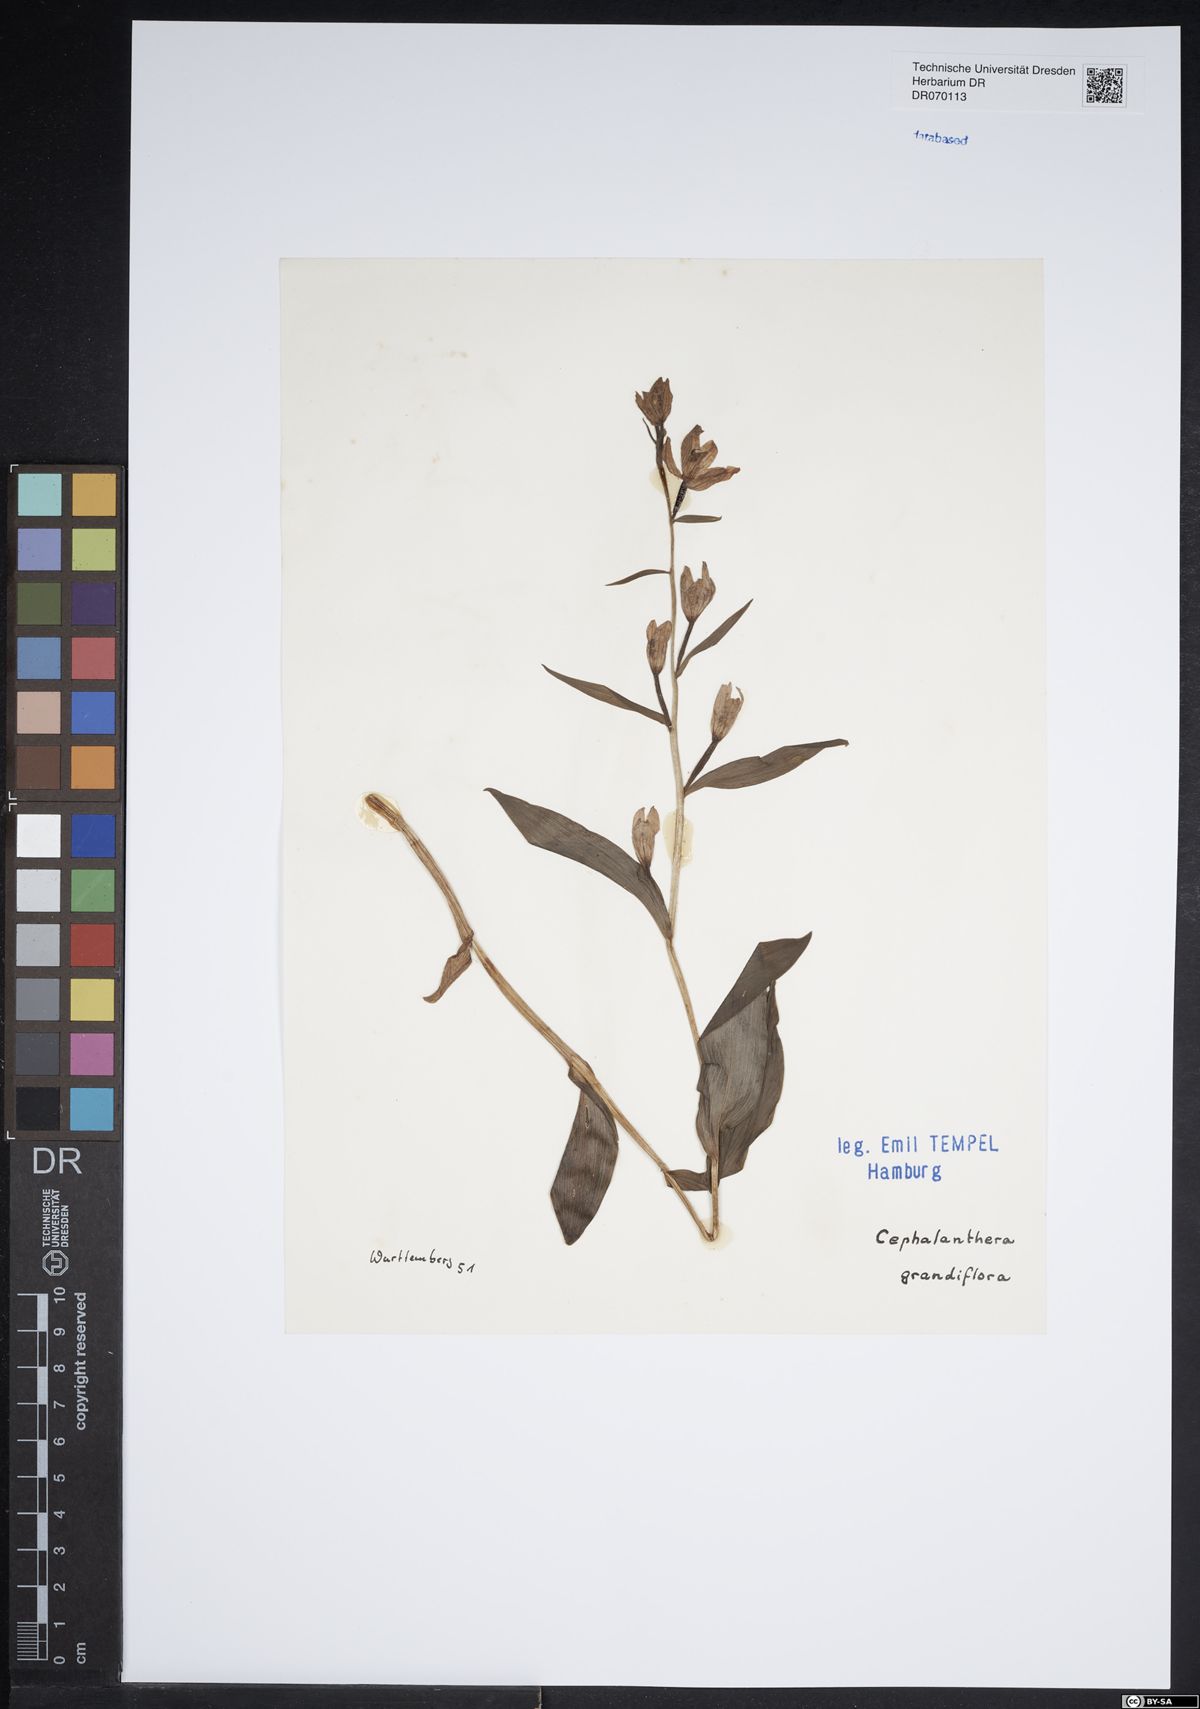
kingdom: Plantae
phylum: Tracheophyta
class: Liliopsida
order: Asparagales
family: Orchidaceae
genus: Cephalanthera
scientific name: Cephalanthera longifolia
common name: Narrow-leaved helleborine
